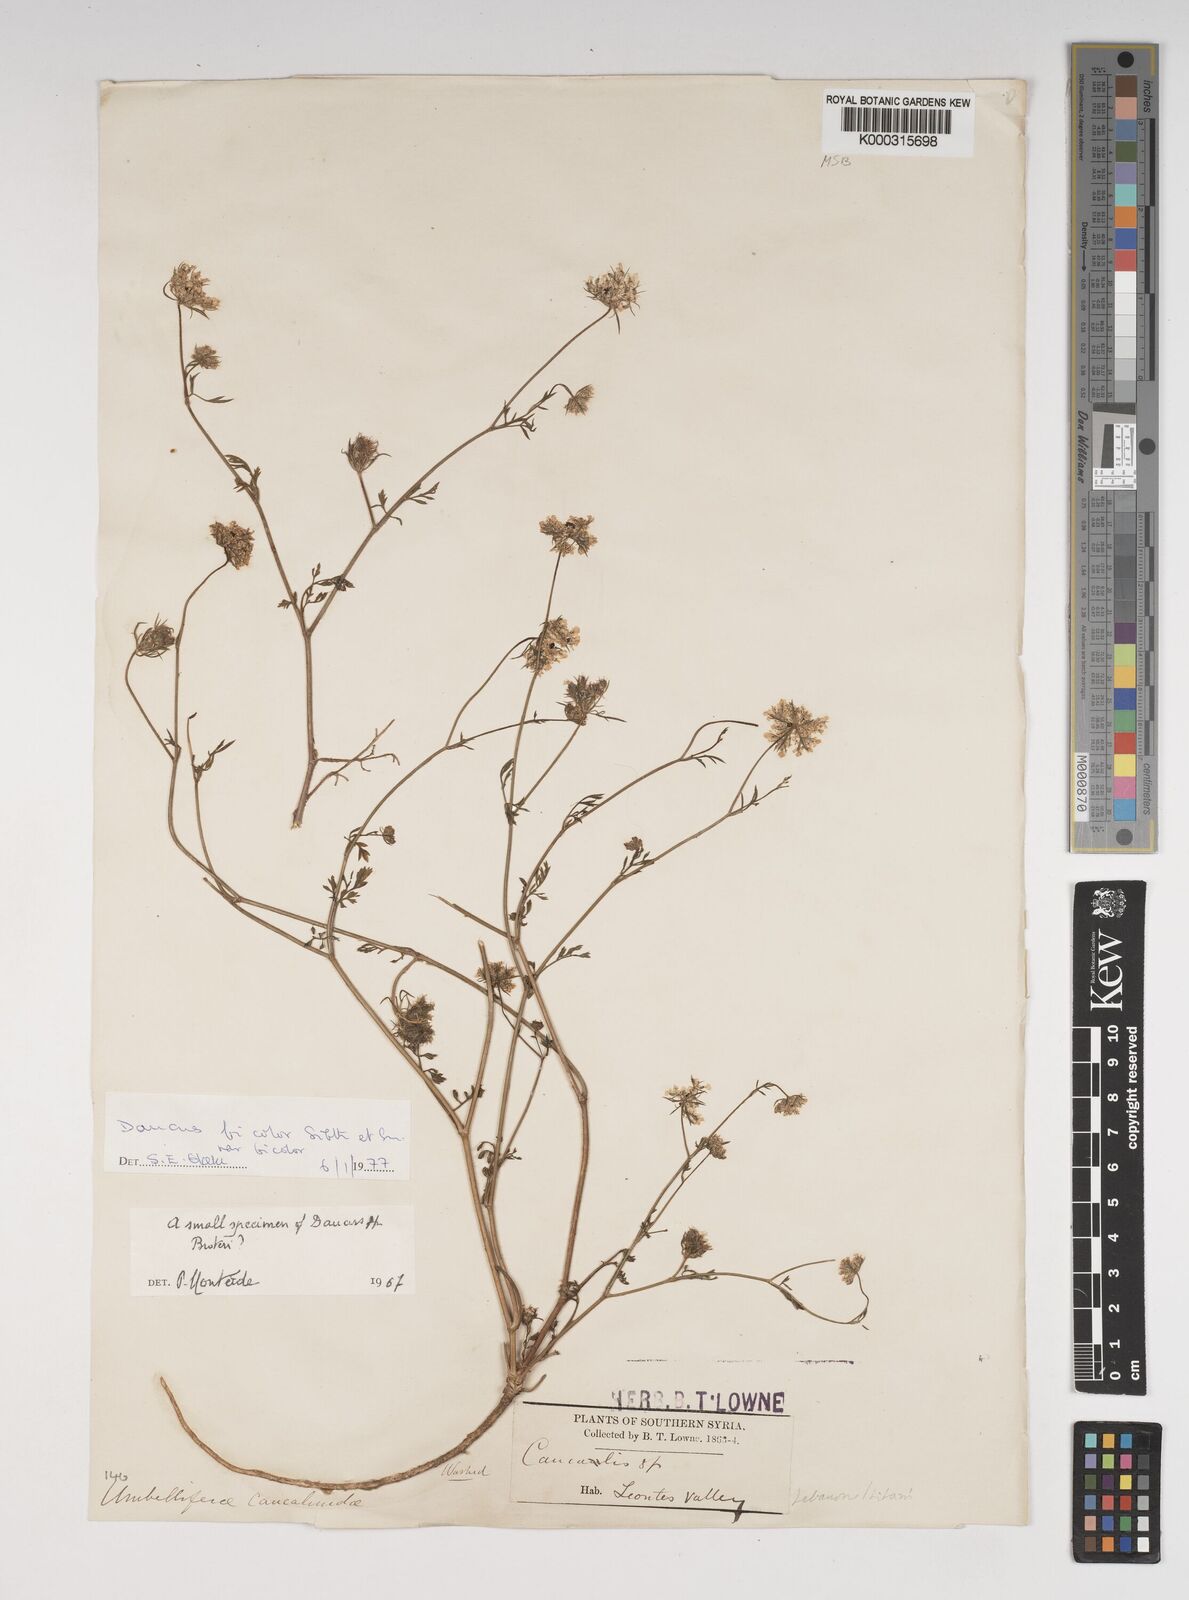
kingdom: Plantae
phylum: Tracheophyta
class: Magnoliopsida
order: Apiales
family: Apiaceae
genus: Daucus
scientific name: Daucus
